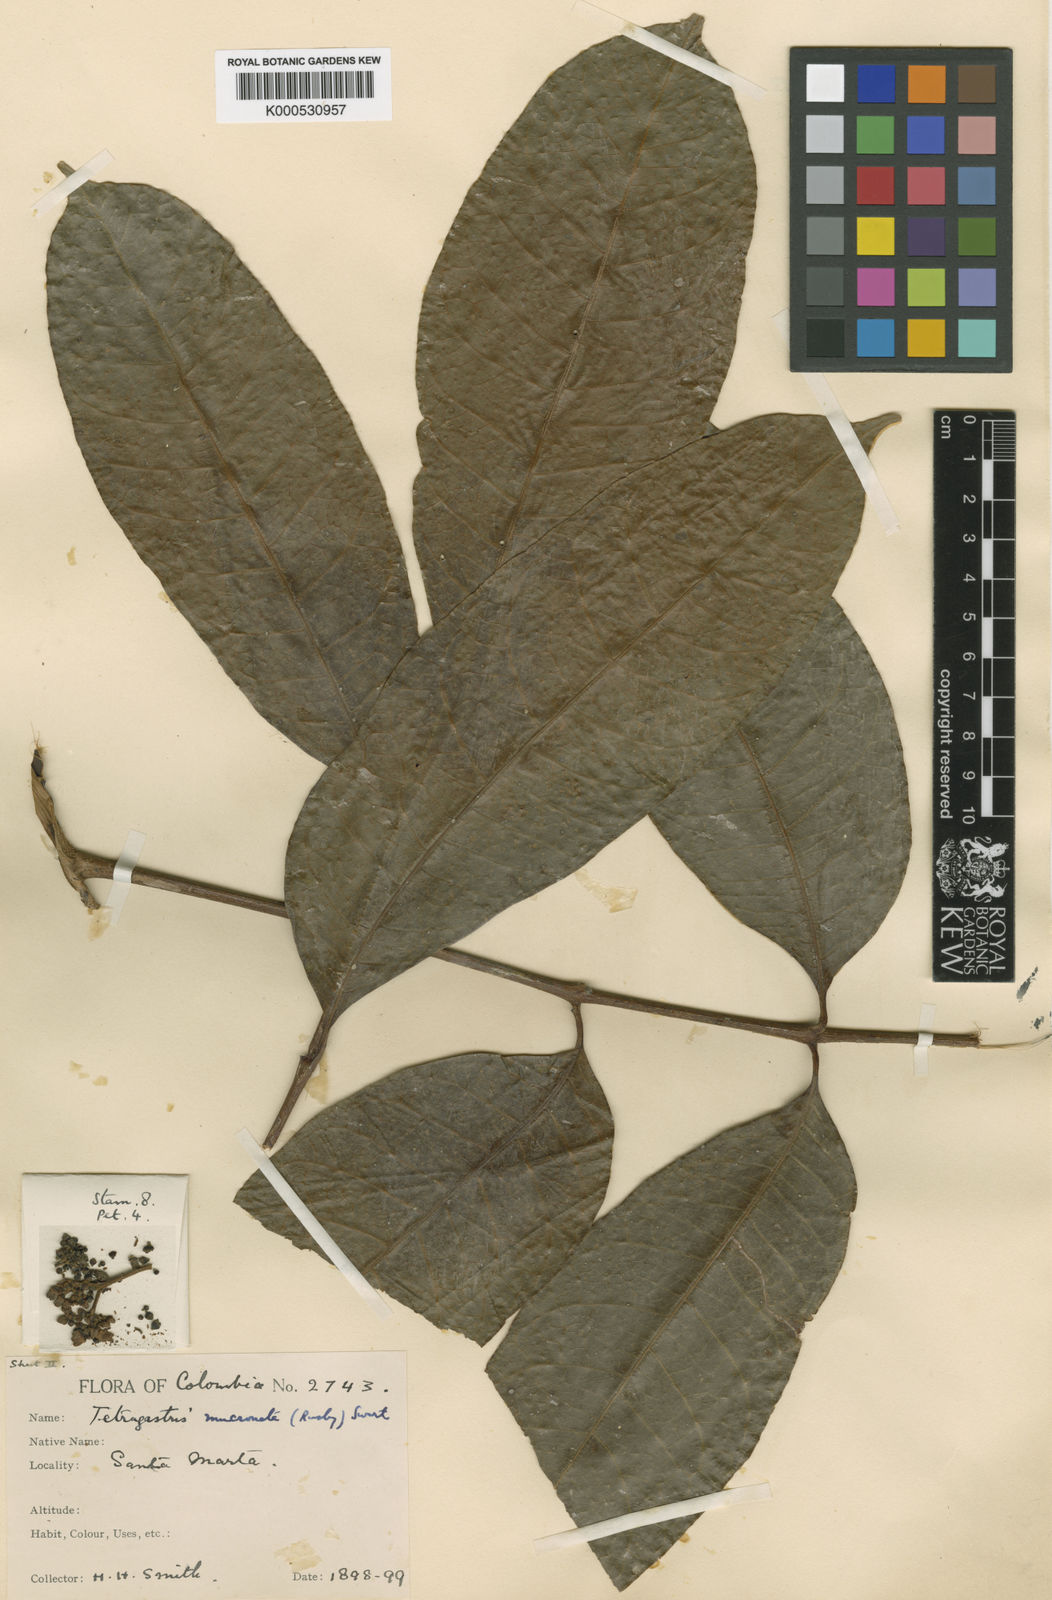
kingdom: Plantae
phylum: Tracheophyta
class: Magnoliopsida
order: Sapindales
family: Burseraceae
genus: Tetragastris
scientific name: Tetragastris mucronata
